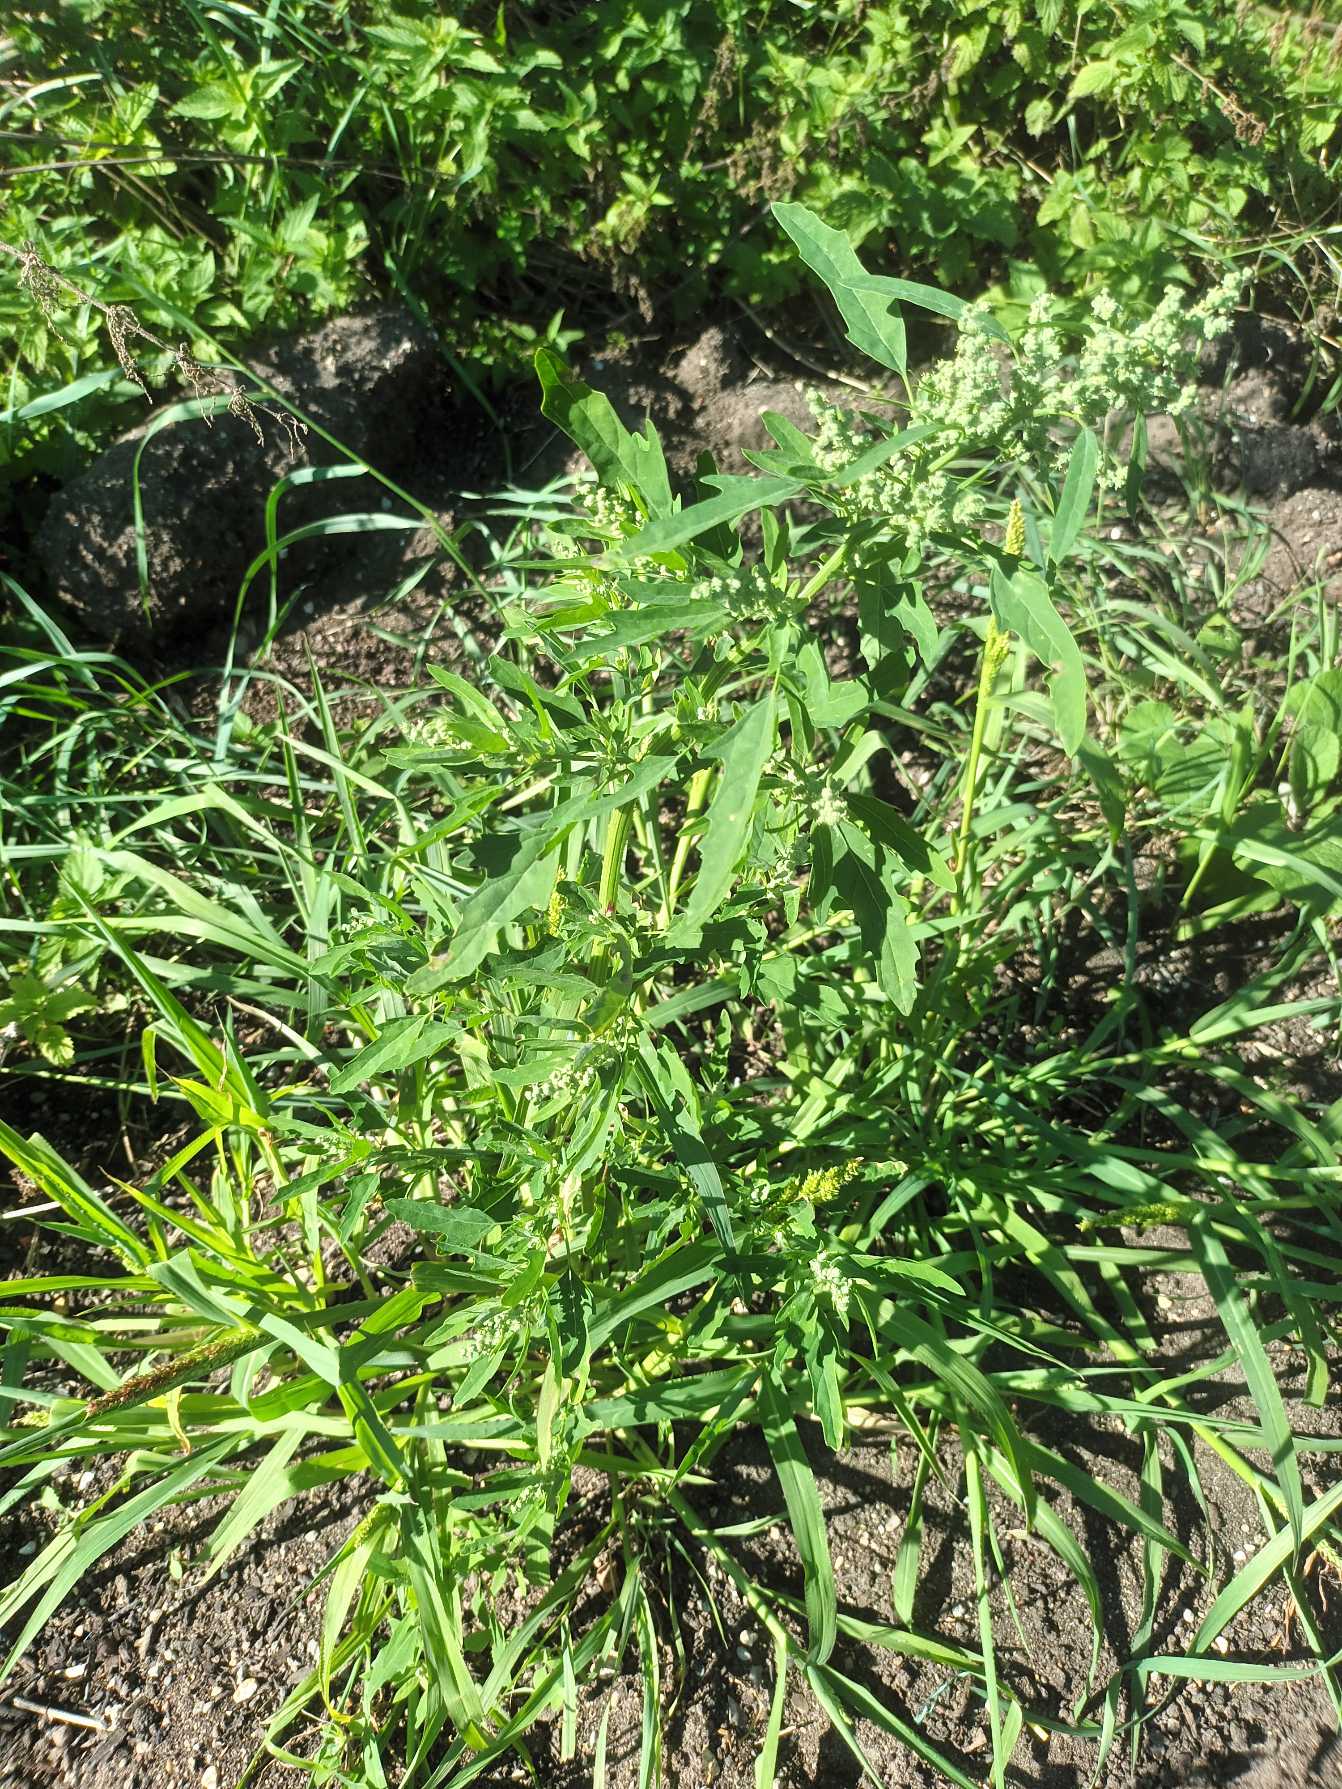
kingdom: Plantae
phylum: Tracheophyta
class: Magnoliopsida
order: Caryophyllales
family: Amaranthaceae
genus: Chenopodium
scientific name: Chenopodium ficifolium
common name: Figenbladet gåsefod
